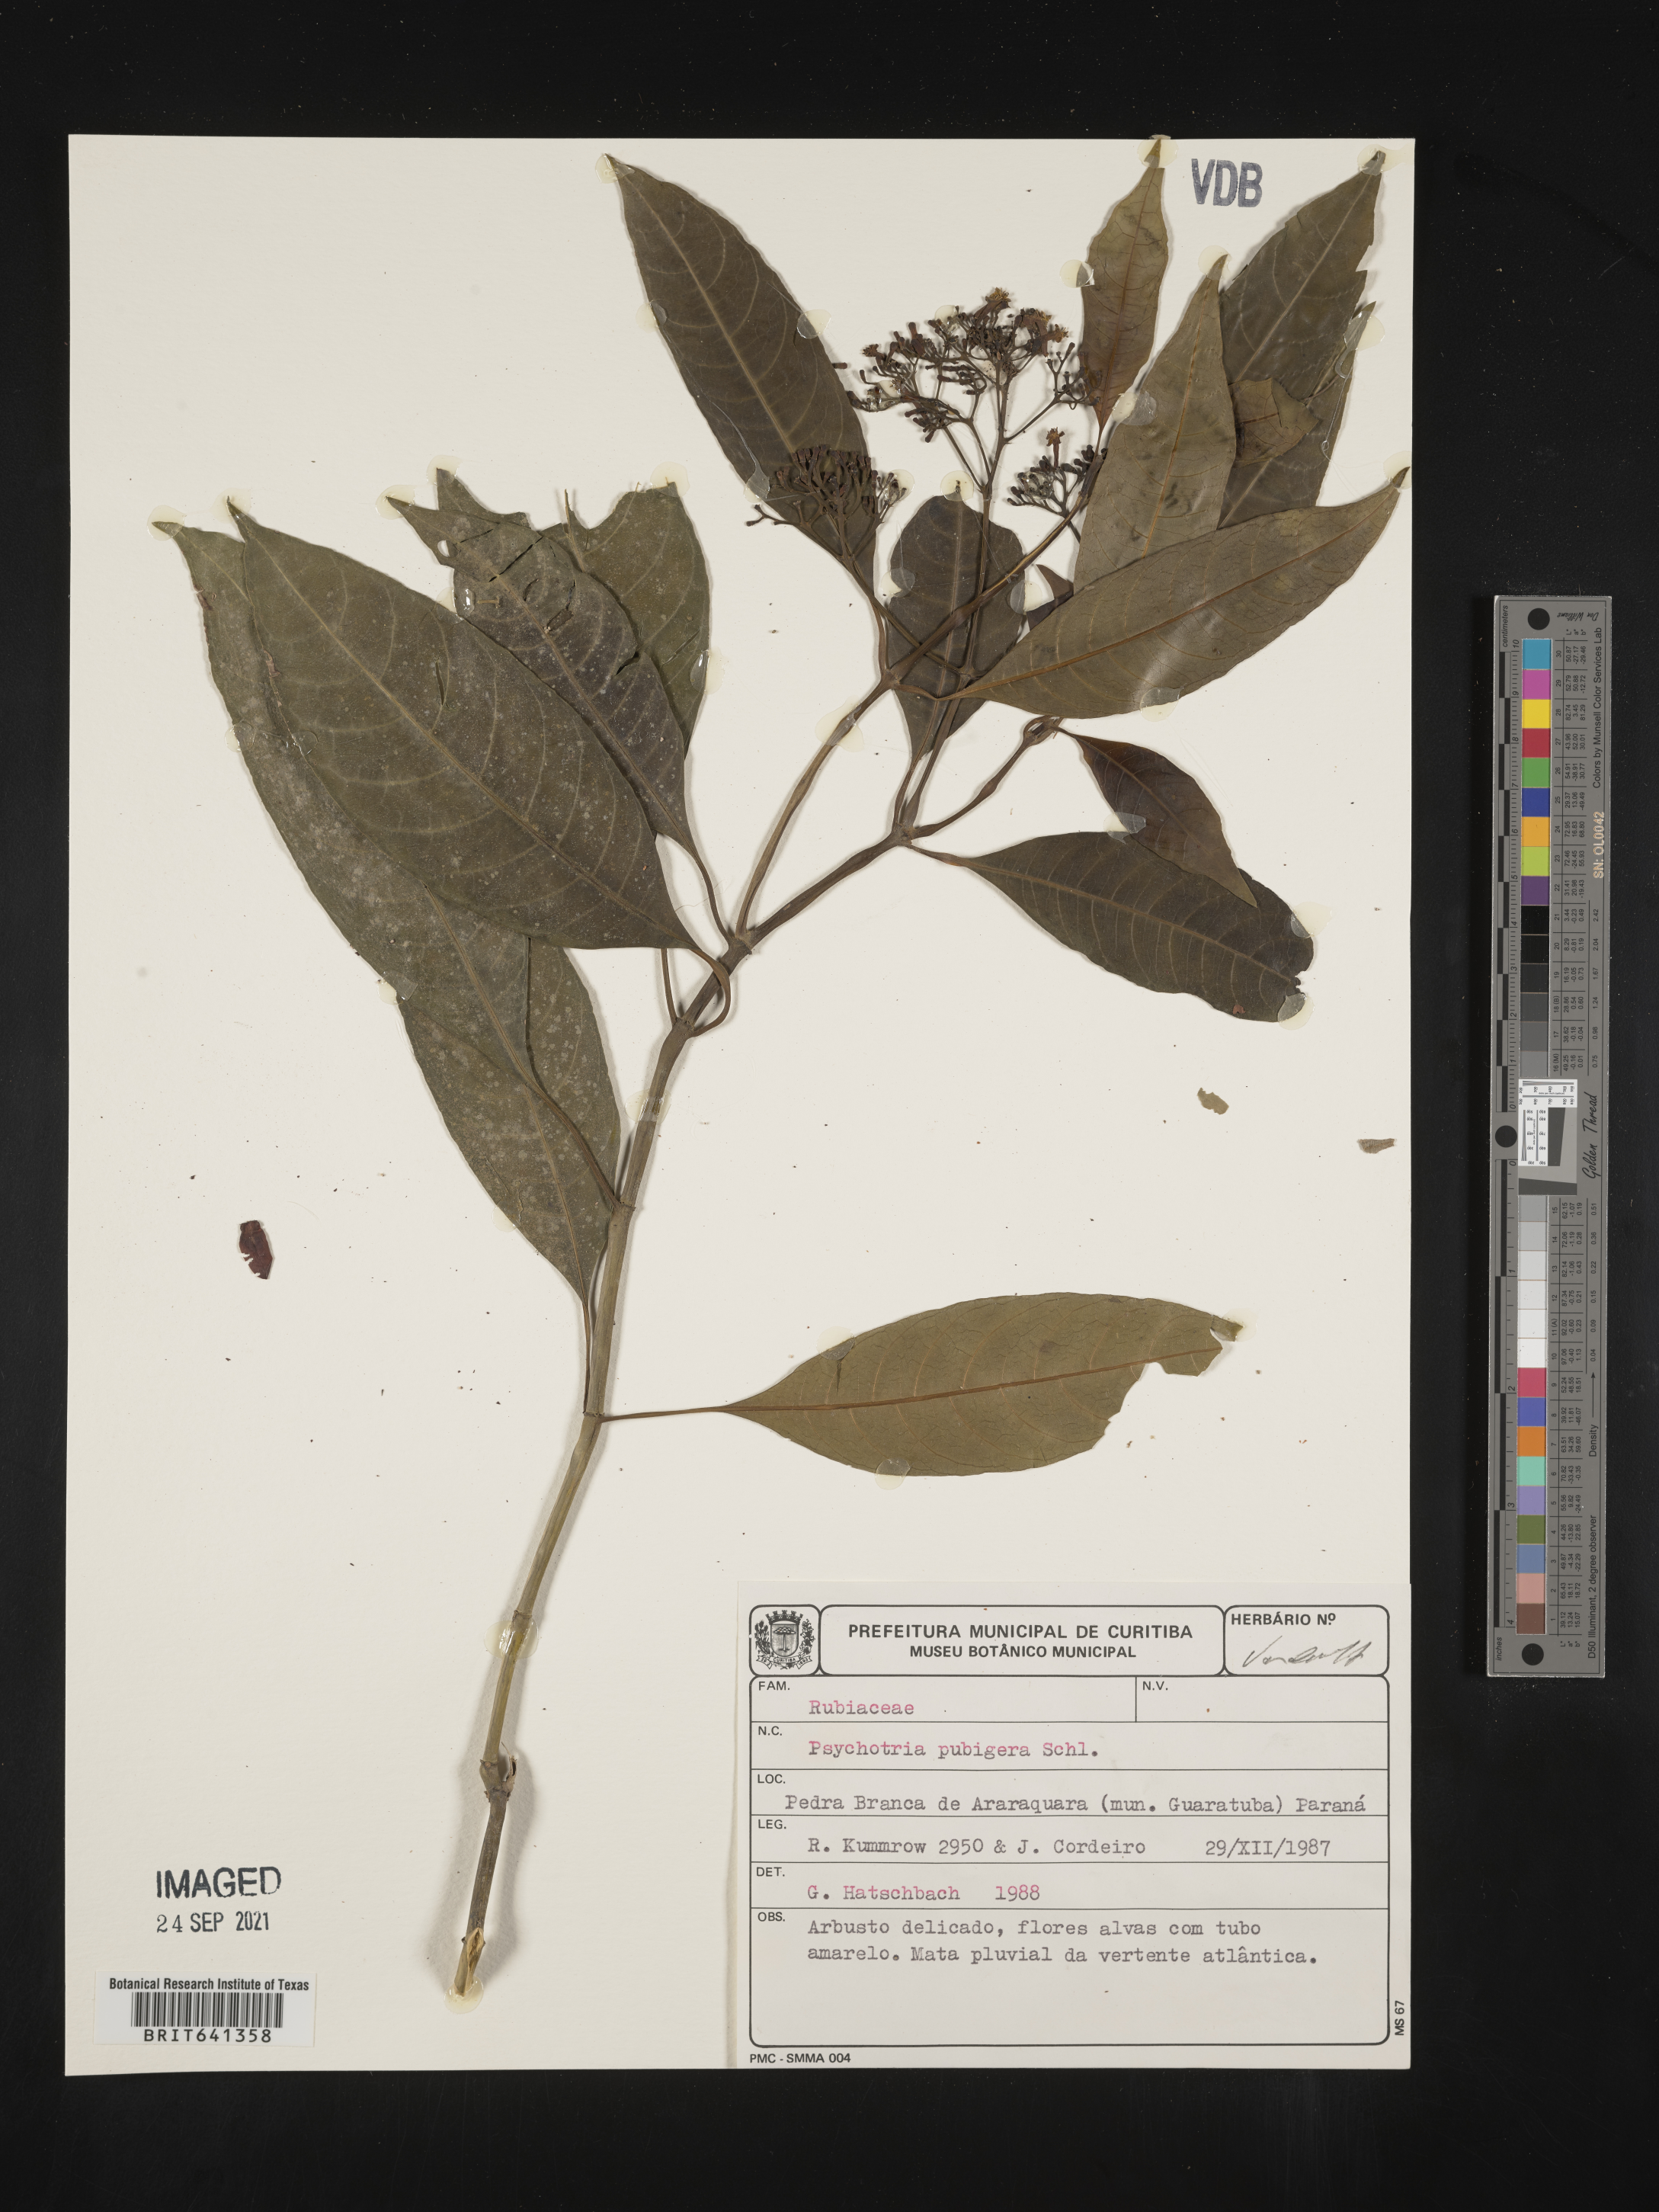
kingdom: Plantae
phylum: Tracheophyta
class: Magnoliopsida
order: Gentianales
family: Rubiaceae
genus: Psychotria
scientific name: Psychotria
